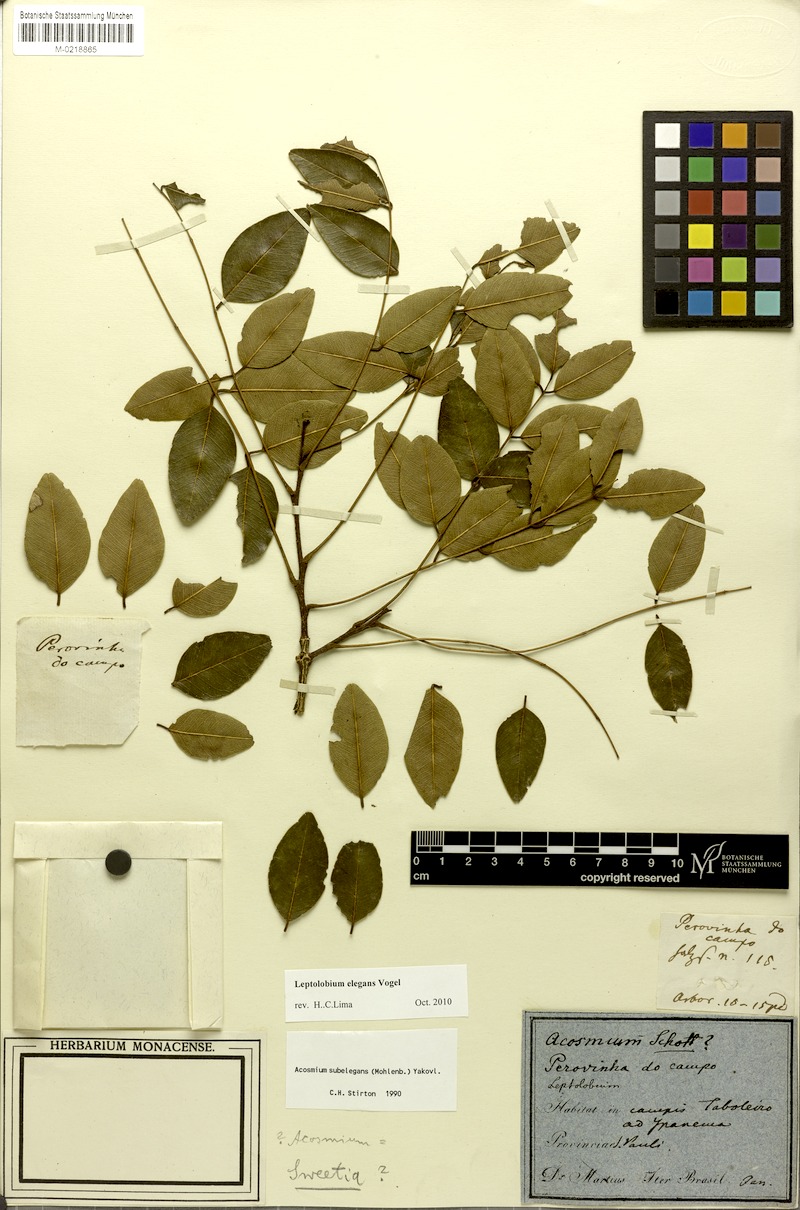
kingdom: Plantae
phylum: Tracheophyta
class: Magnoliopsida
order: Fabales
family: Fabaceae
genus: Leptolobium
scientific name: Leptolobium elegans
